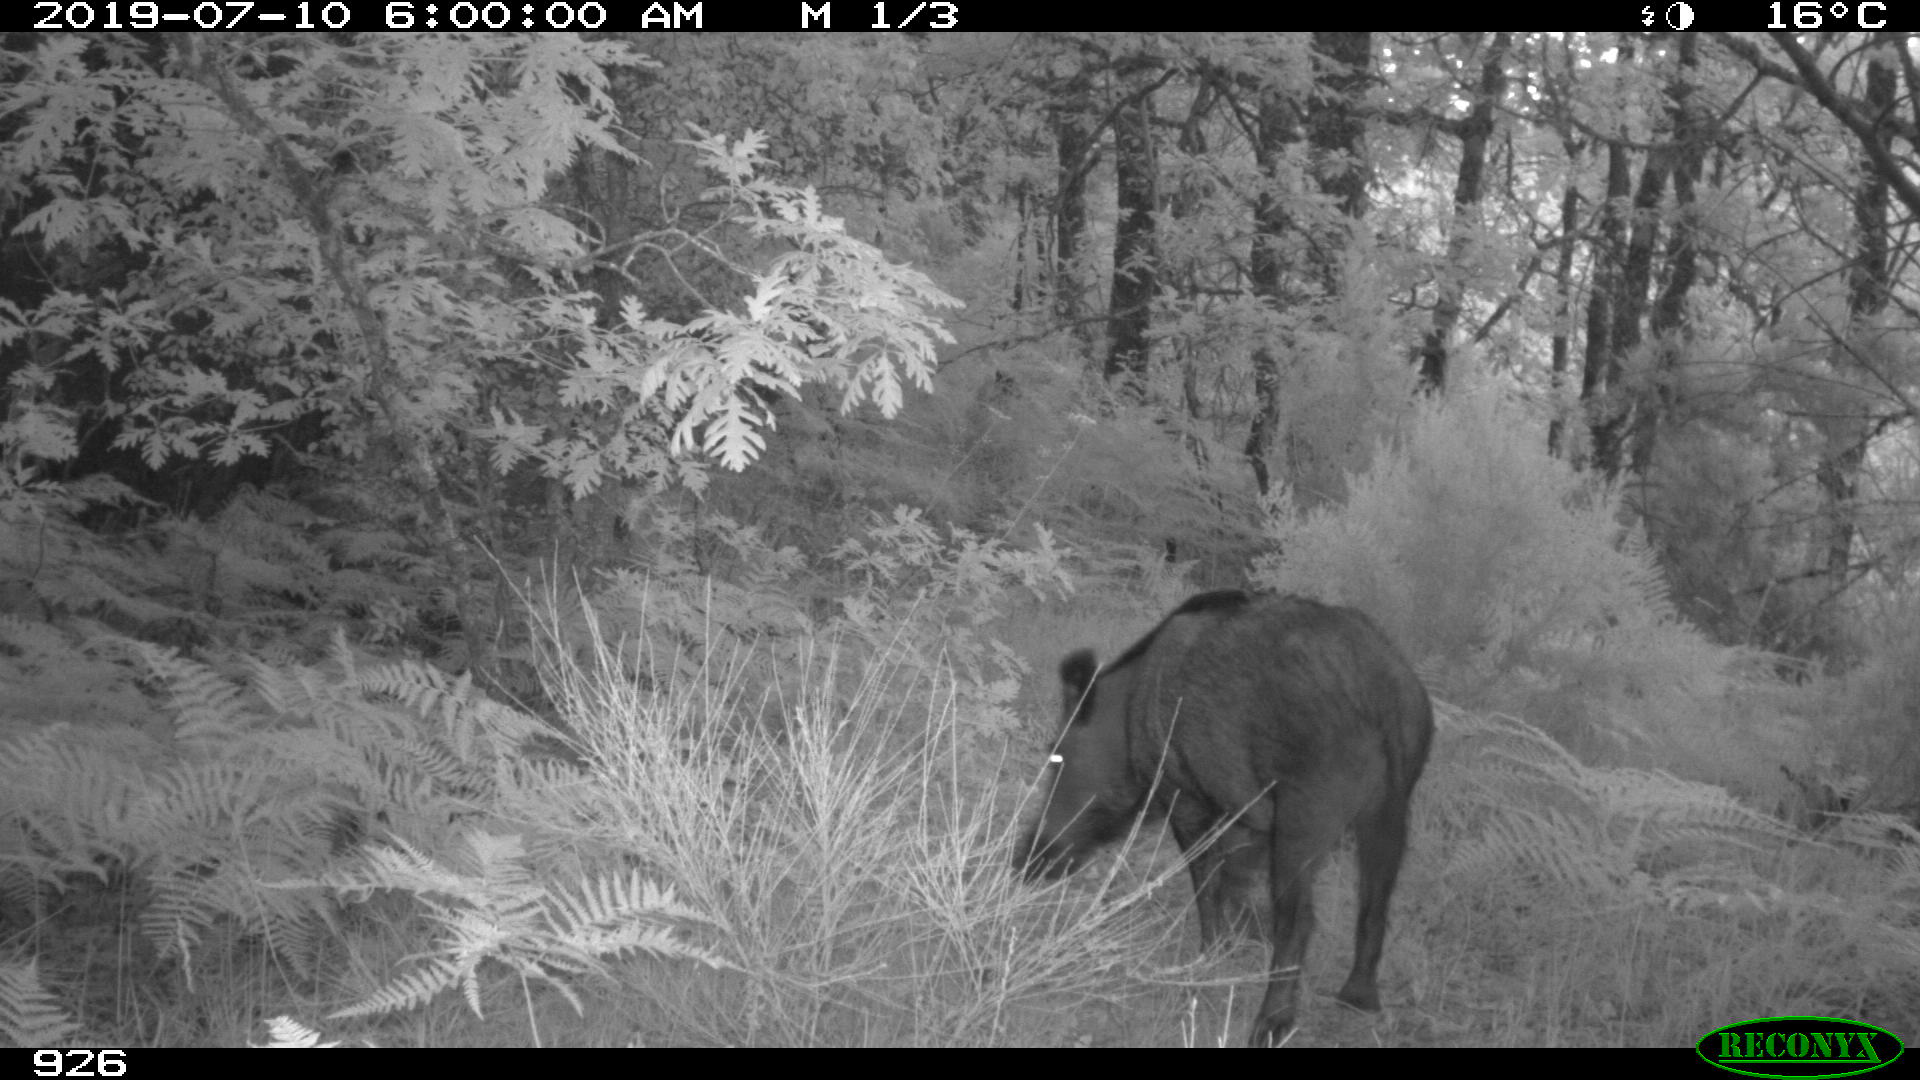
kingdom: Animalia
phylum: Chordata
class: Mammalia
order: Artiodactyla
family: Suidae
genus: Sus
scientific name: Sus scrofa
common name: Wild boar
